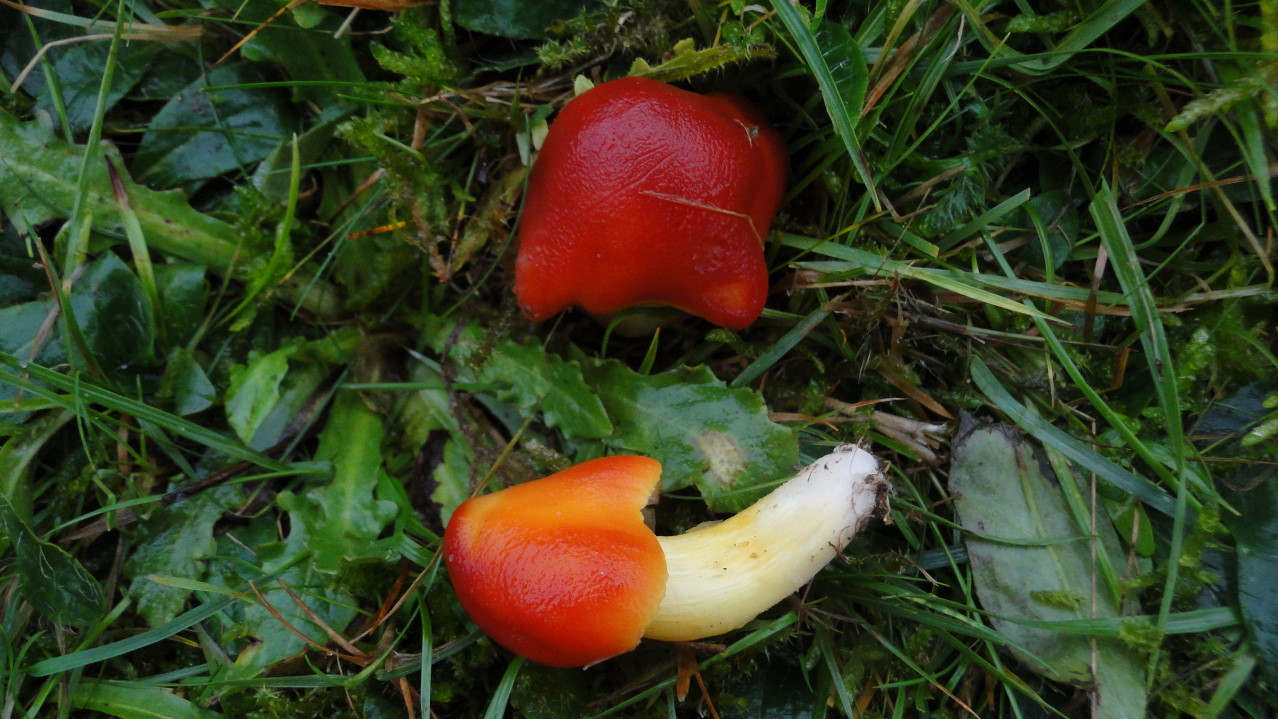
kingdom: Fungi
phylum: Basidiomycota
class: Agaricomycetes
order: Agaricales
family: Hygrophoraceae
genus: Hygrocybe
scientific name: Hygrocybe punicea
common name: skarlagen-vokshat
